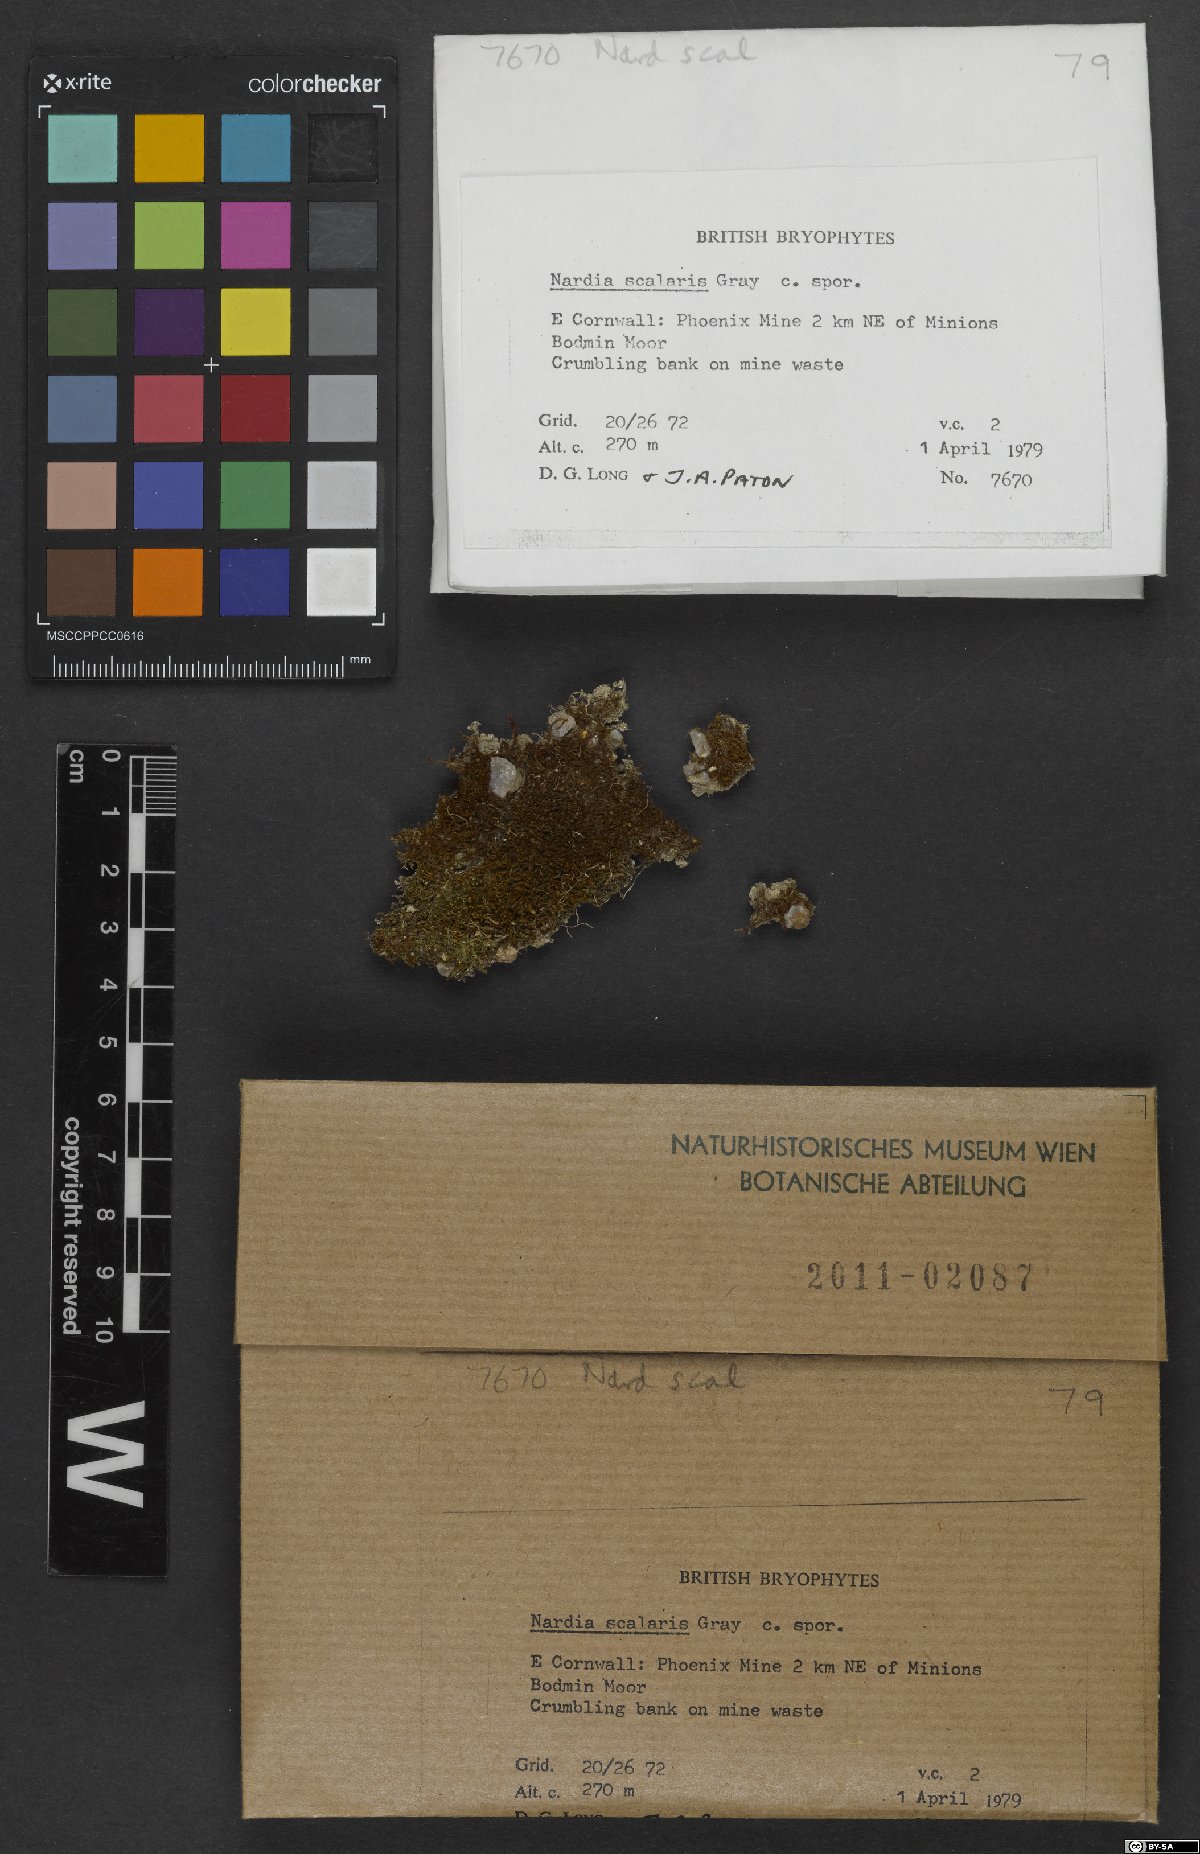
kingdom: Plantae
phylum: Marchantiophyta
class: Jungermanniopsida
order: Jungermanniales
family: Gymnomitriaceae
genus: Nardia
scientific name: Nardia scalaris
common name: Ladder flapwort
